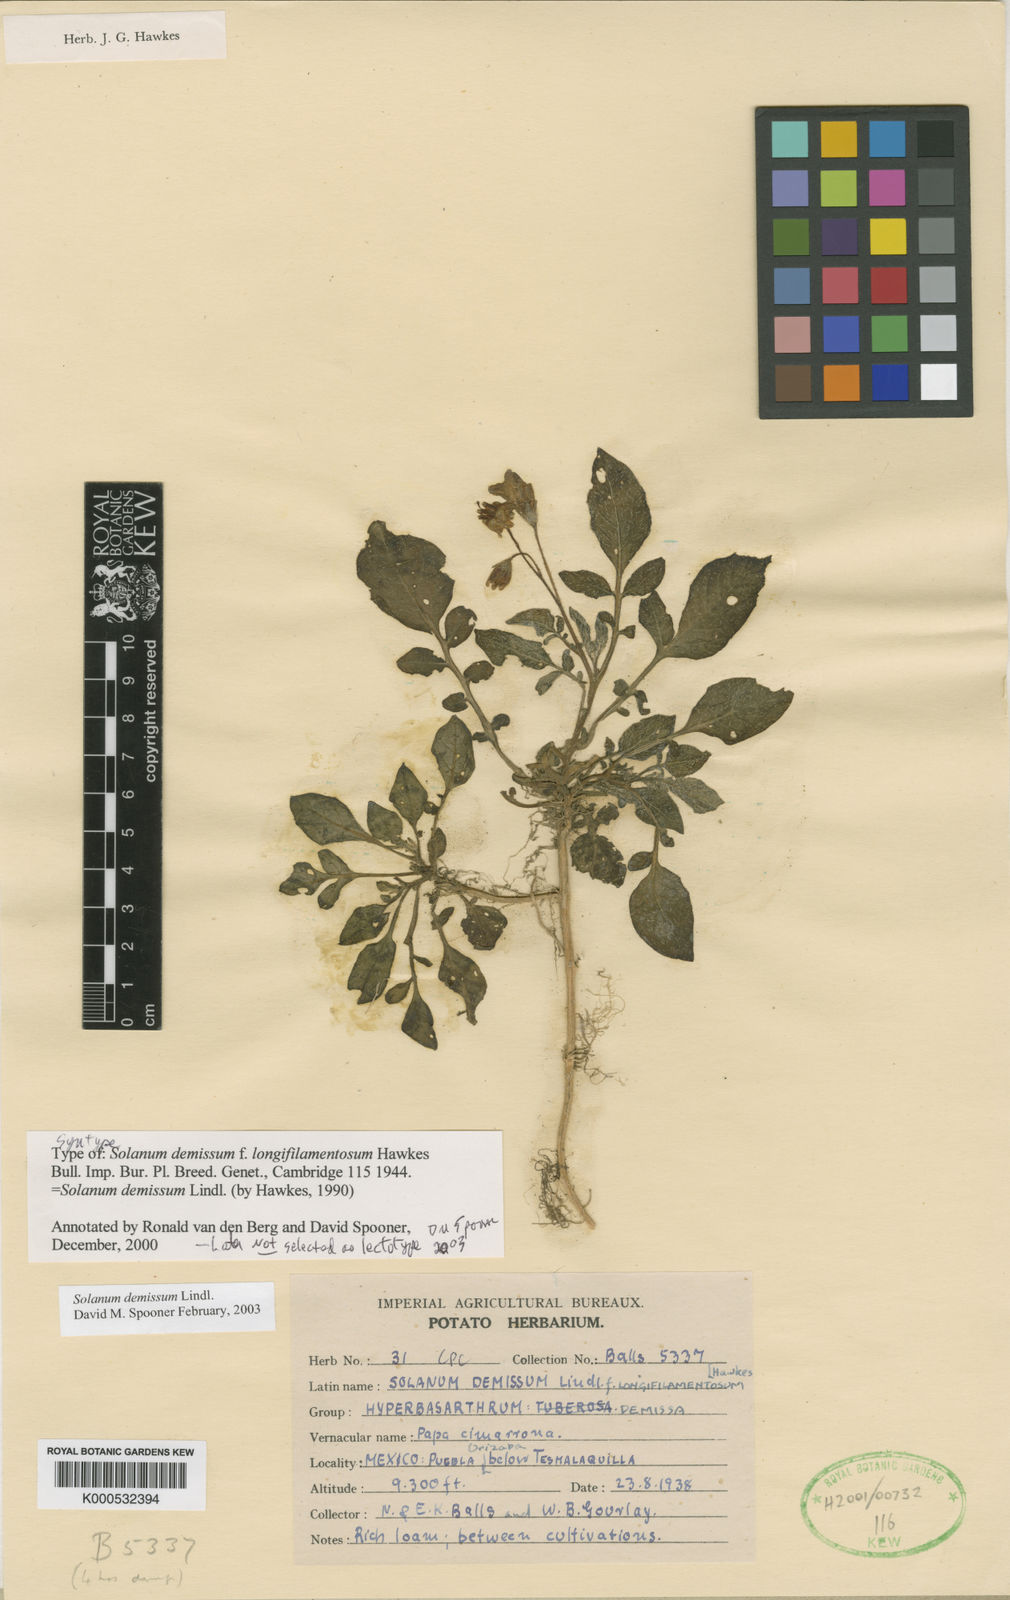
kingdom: Plantae
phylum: Tracheophyta
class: Magnoliopsida
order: Solanales
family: Solanaceae
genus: Solanum
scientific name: Solanum demissum
